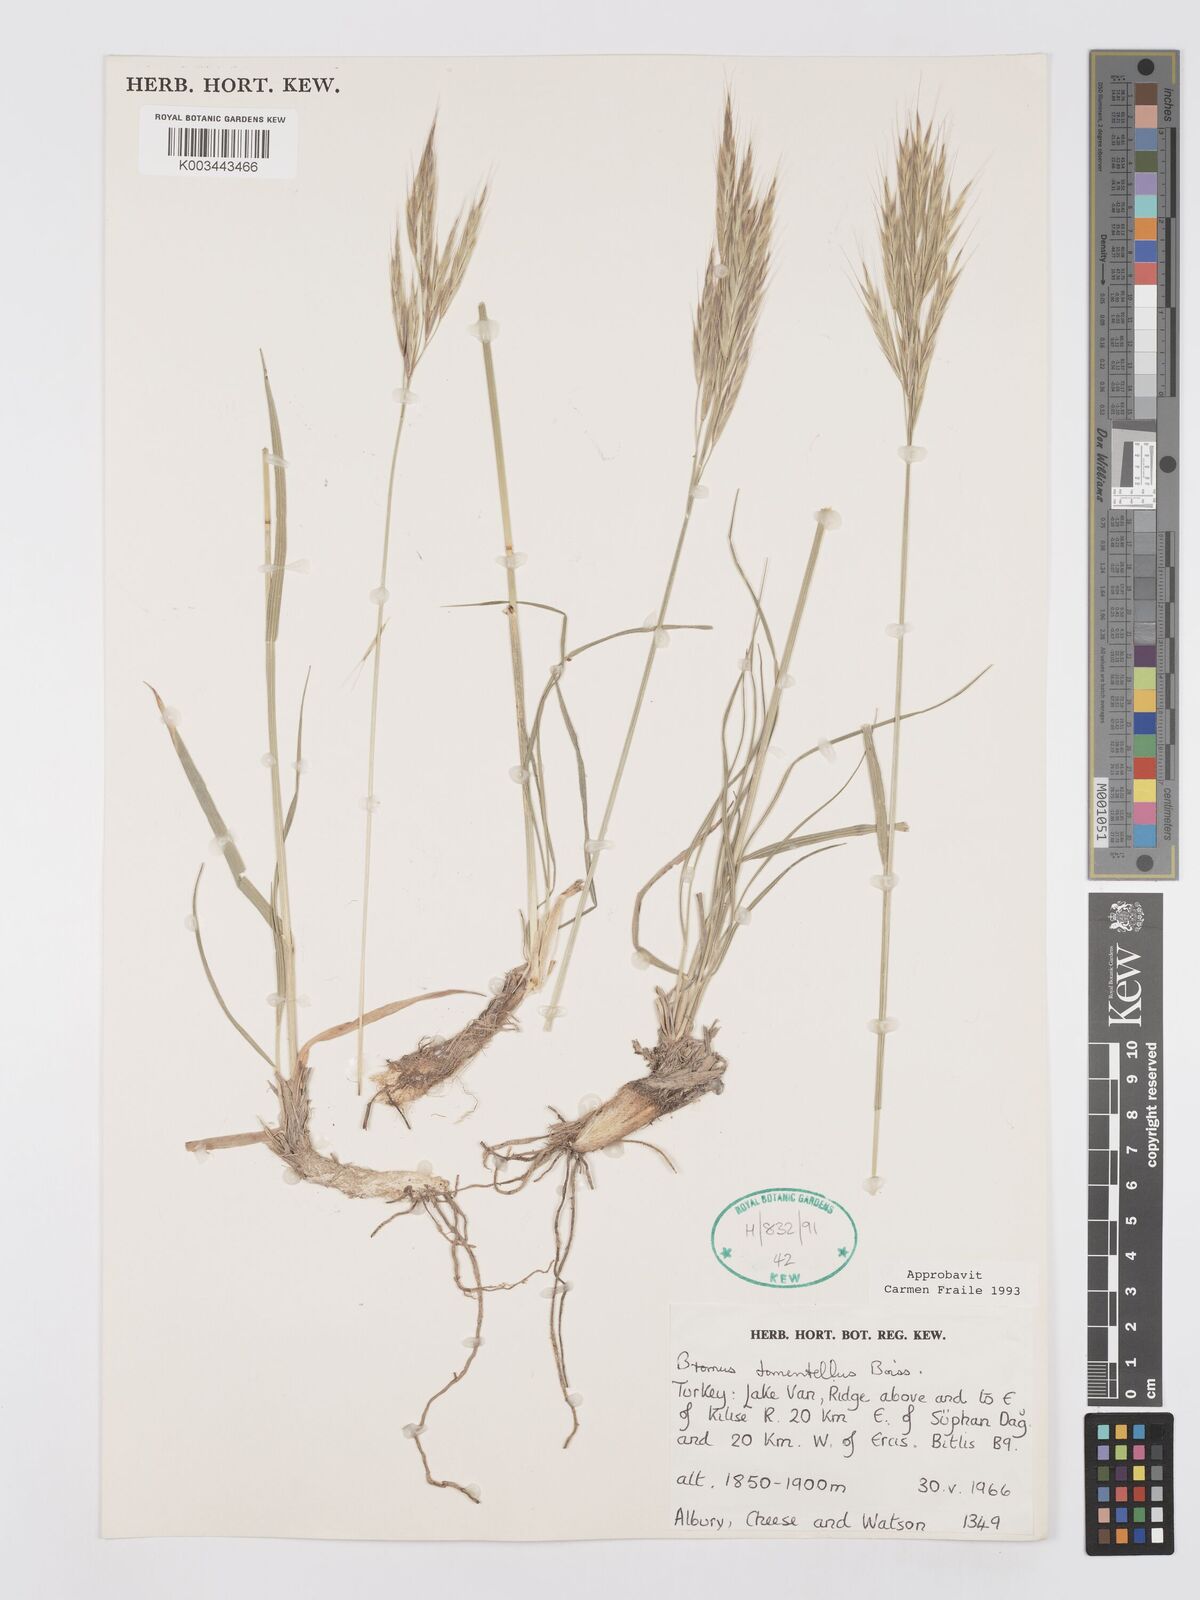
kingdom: Plantae
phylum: Tracheophyta
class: Liliopsida
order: Poales
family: Poaceae
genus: Bromus
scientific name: Bromus tomentellus
